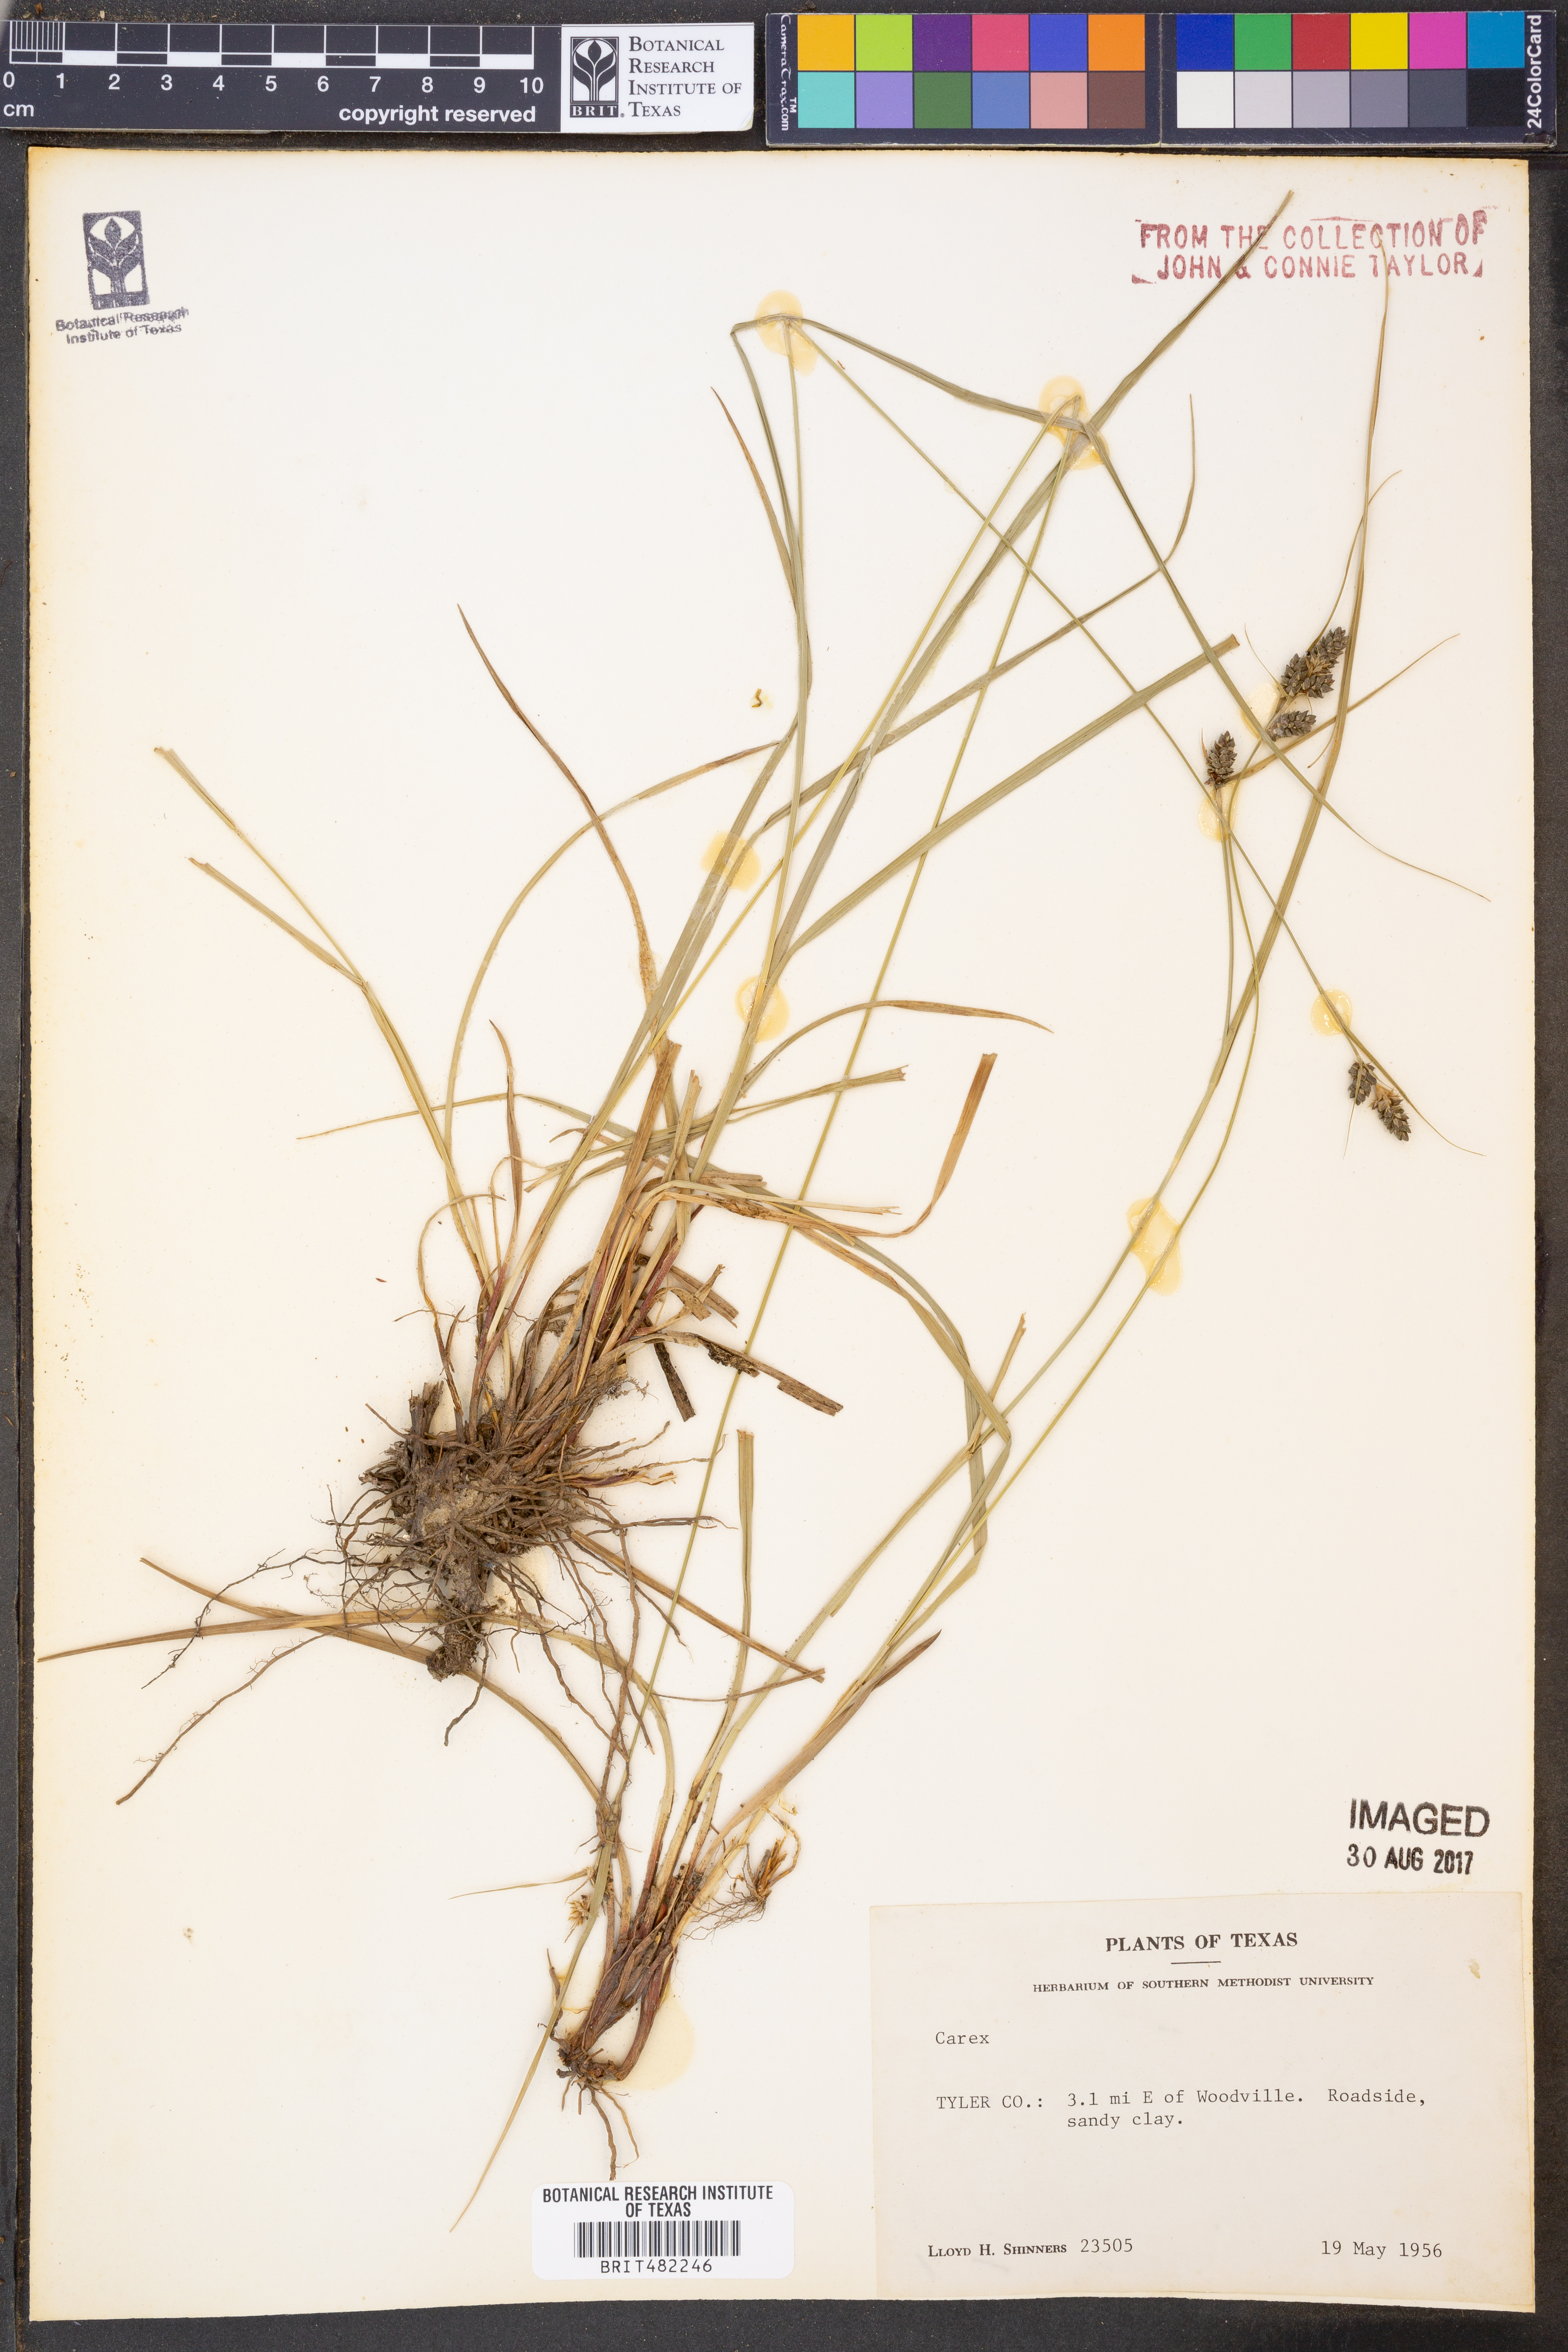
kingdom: Plantae
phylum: Tracheophyta
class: Liliopsida
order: Poales
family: Cyperaceae
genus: Carex
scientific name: Carex
